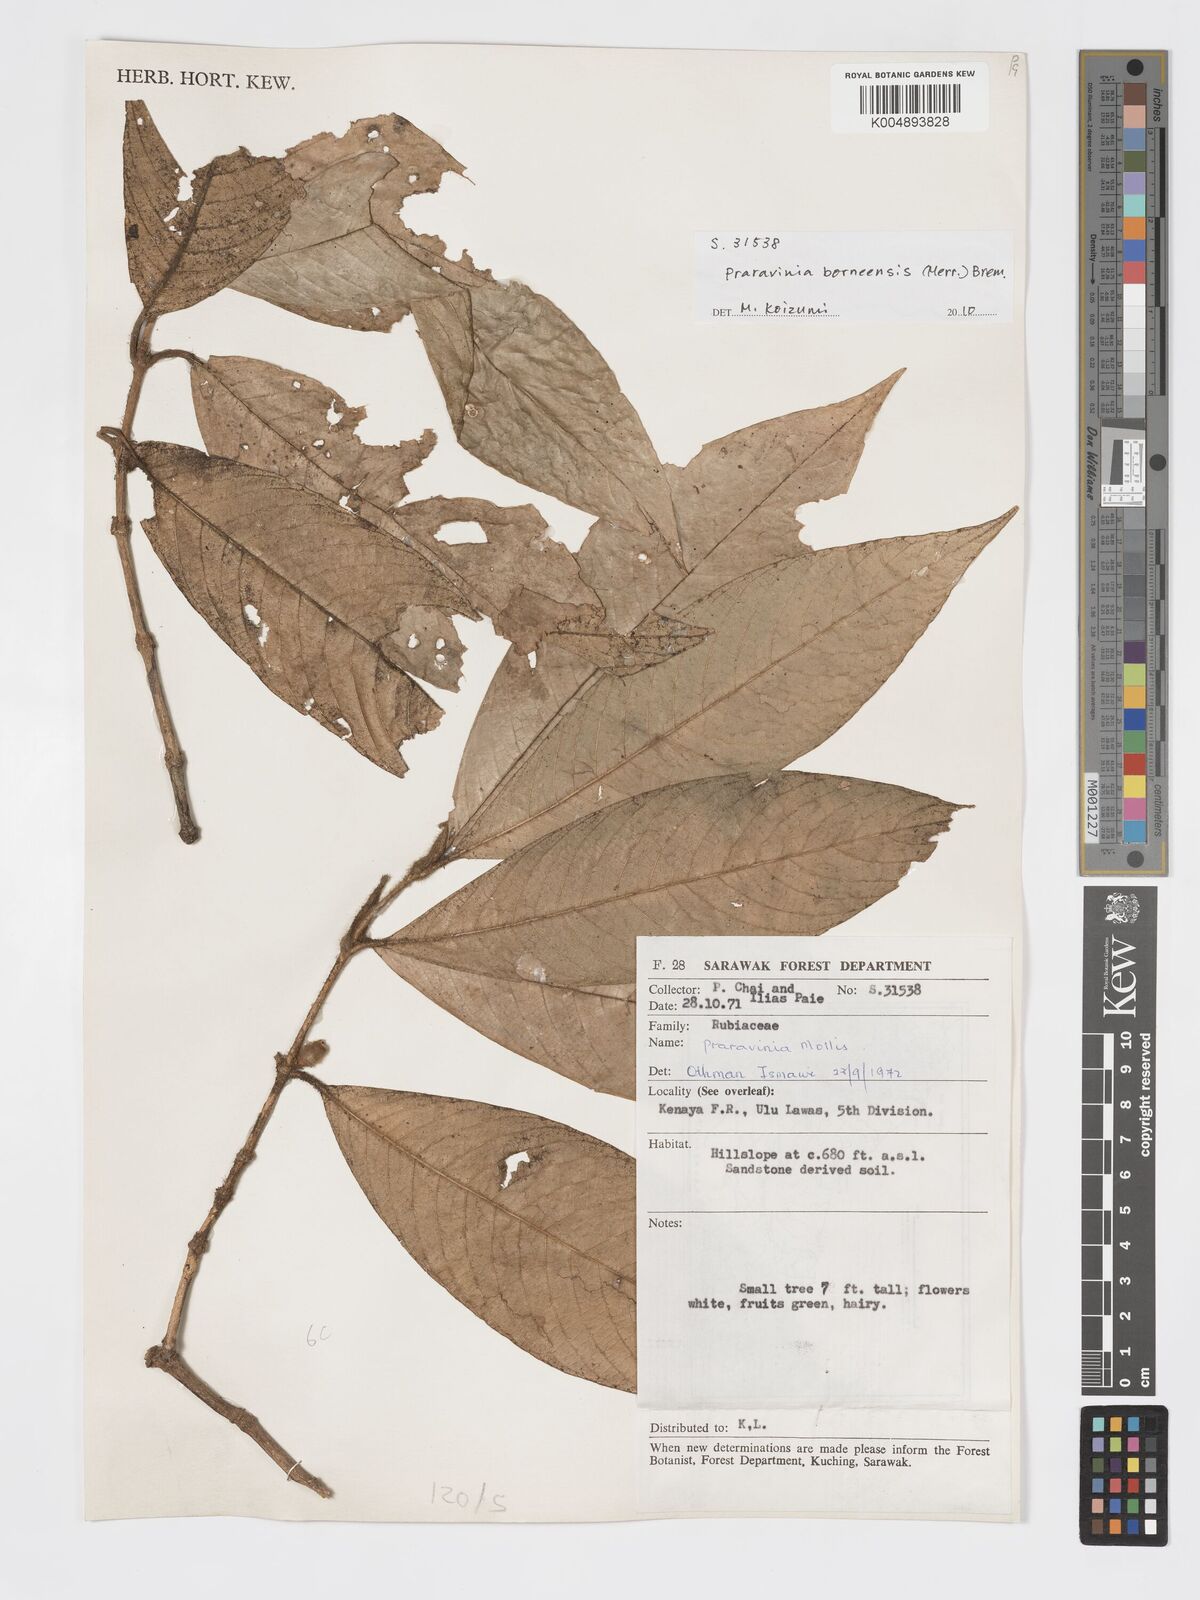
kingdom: Plantae
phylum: Tracheophyta
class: Magnoliopsida
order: Gentianales
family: Rubiaceae
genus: Praravinia
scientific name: Praravinia borneensis
